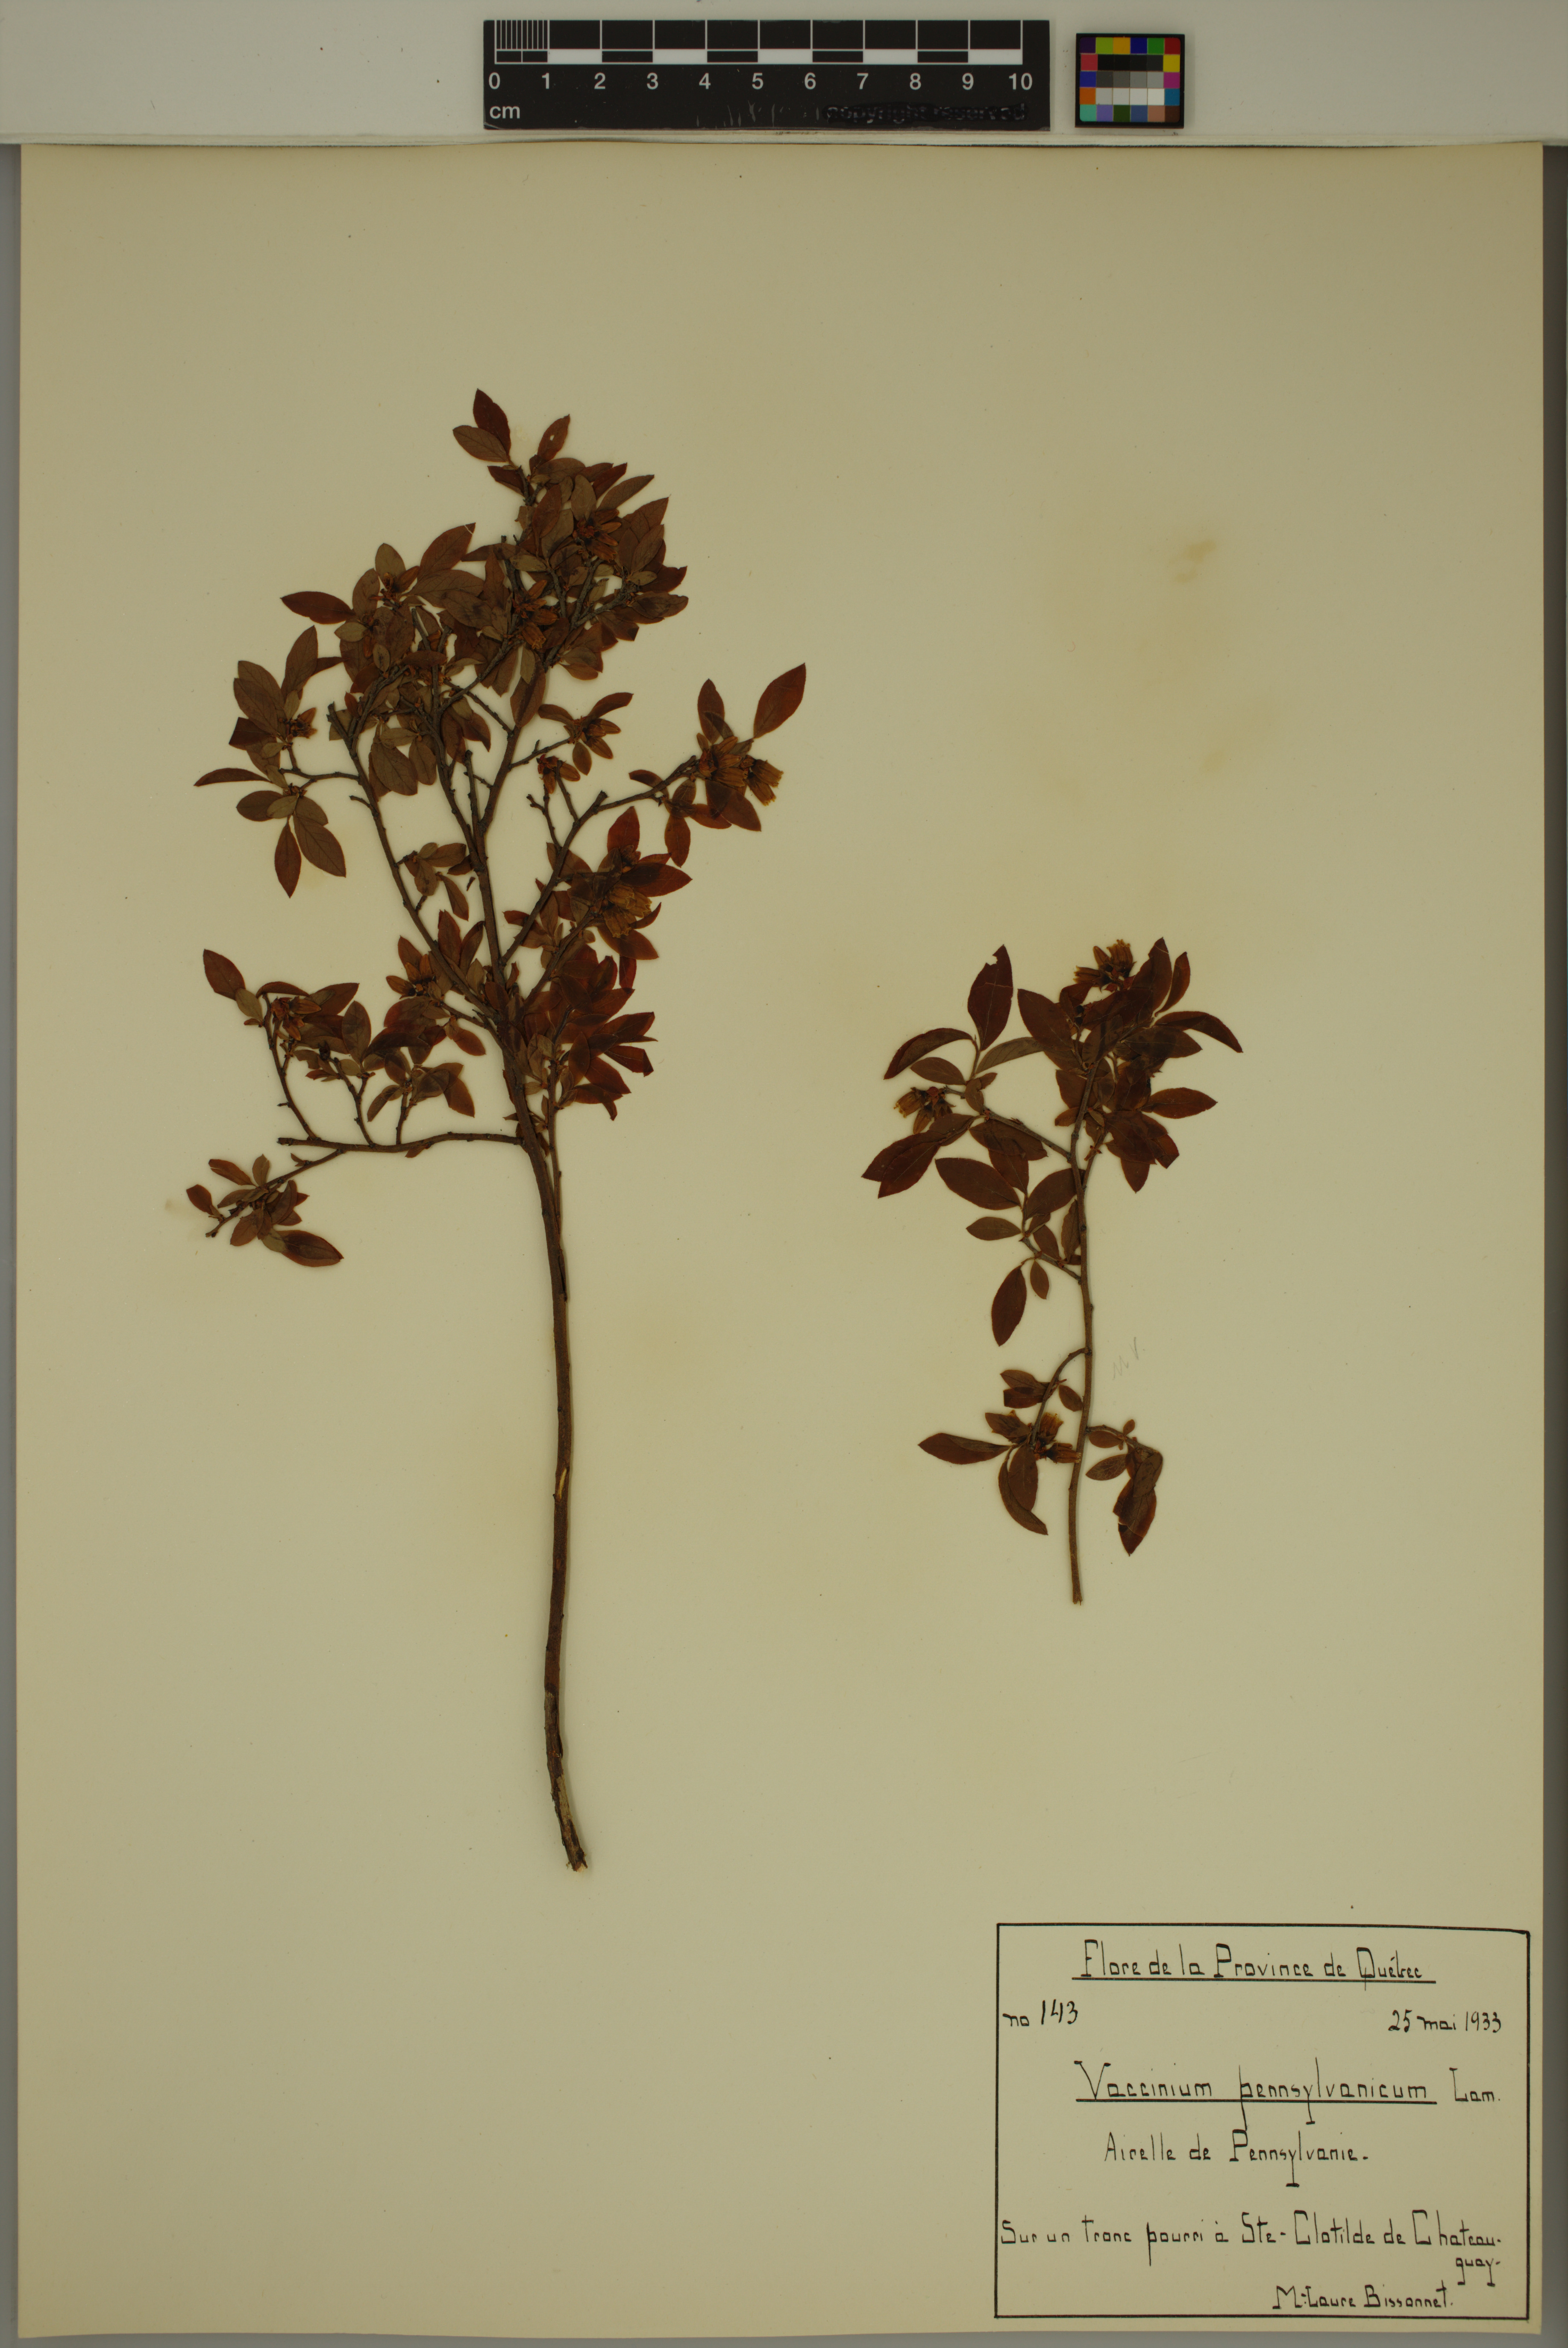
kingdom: Plantae
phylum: Tracheophyta
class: Magnoliopsida
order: Ericales
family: Ericaceae
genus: Vaccinium
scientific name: Vaccinium angustifolium
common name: Early lowbush blueberry
